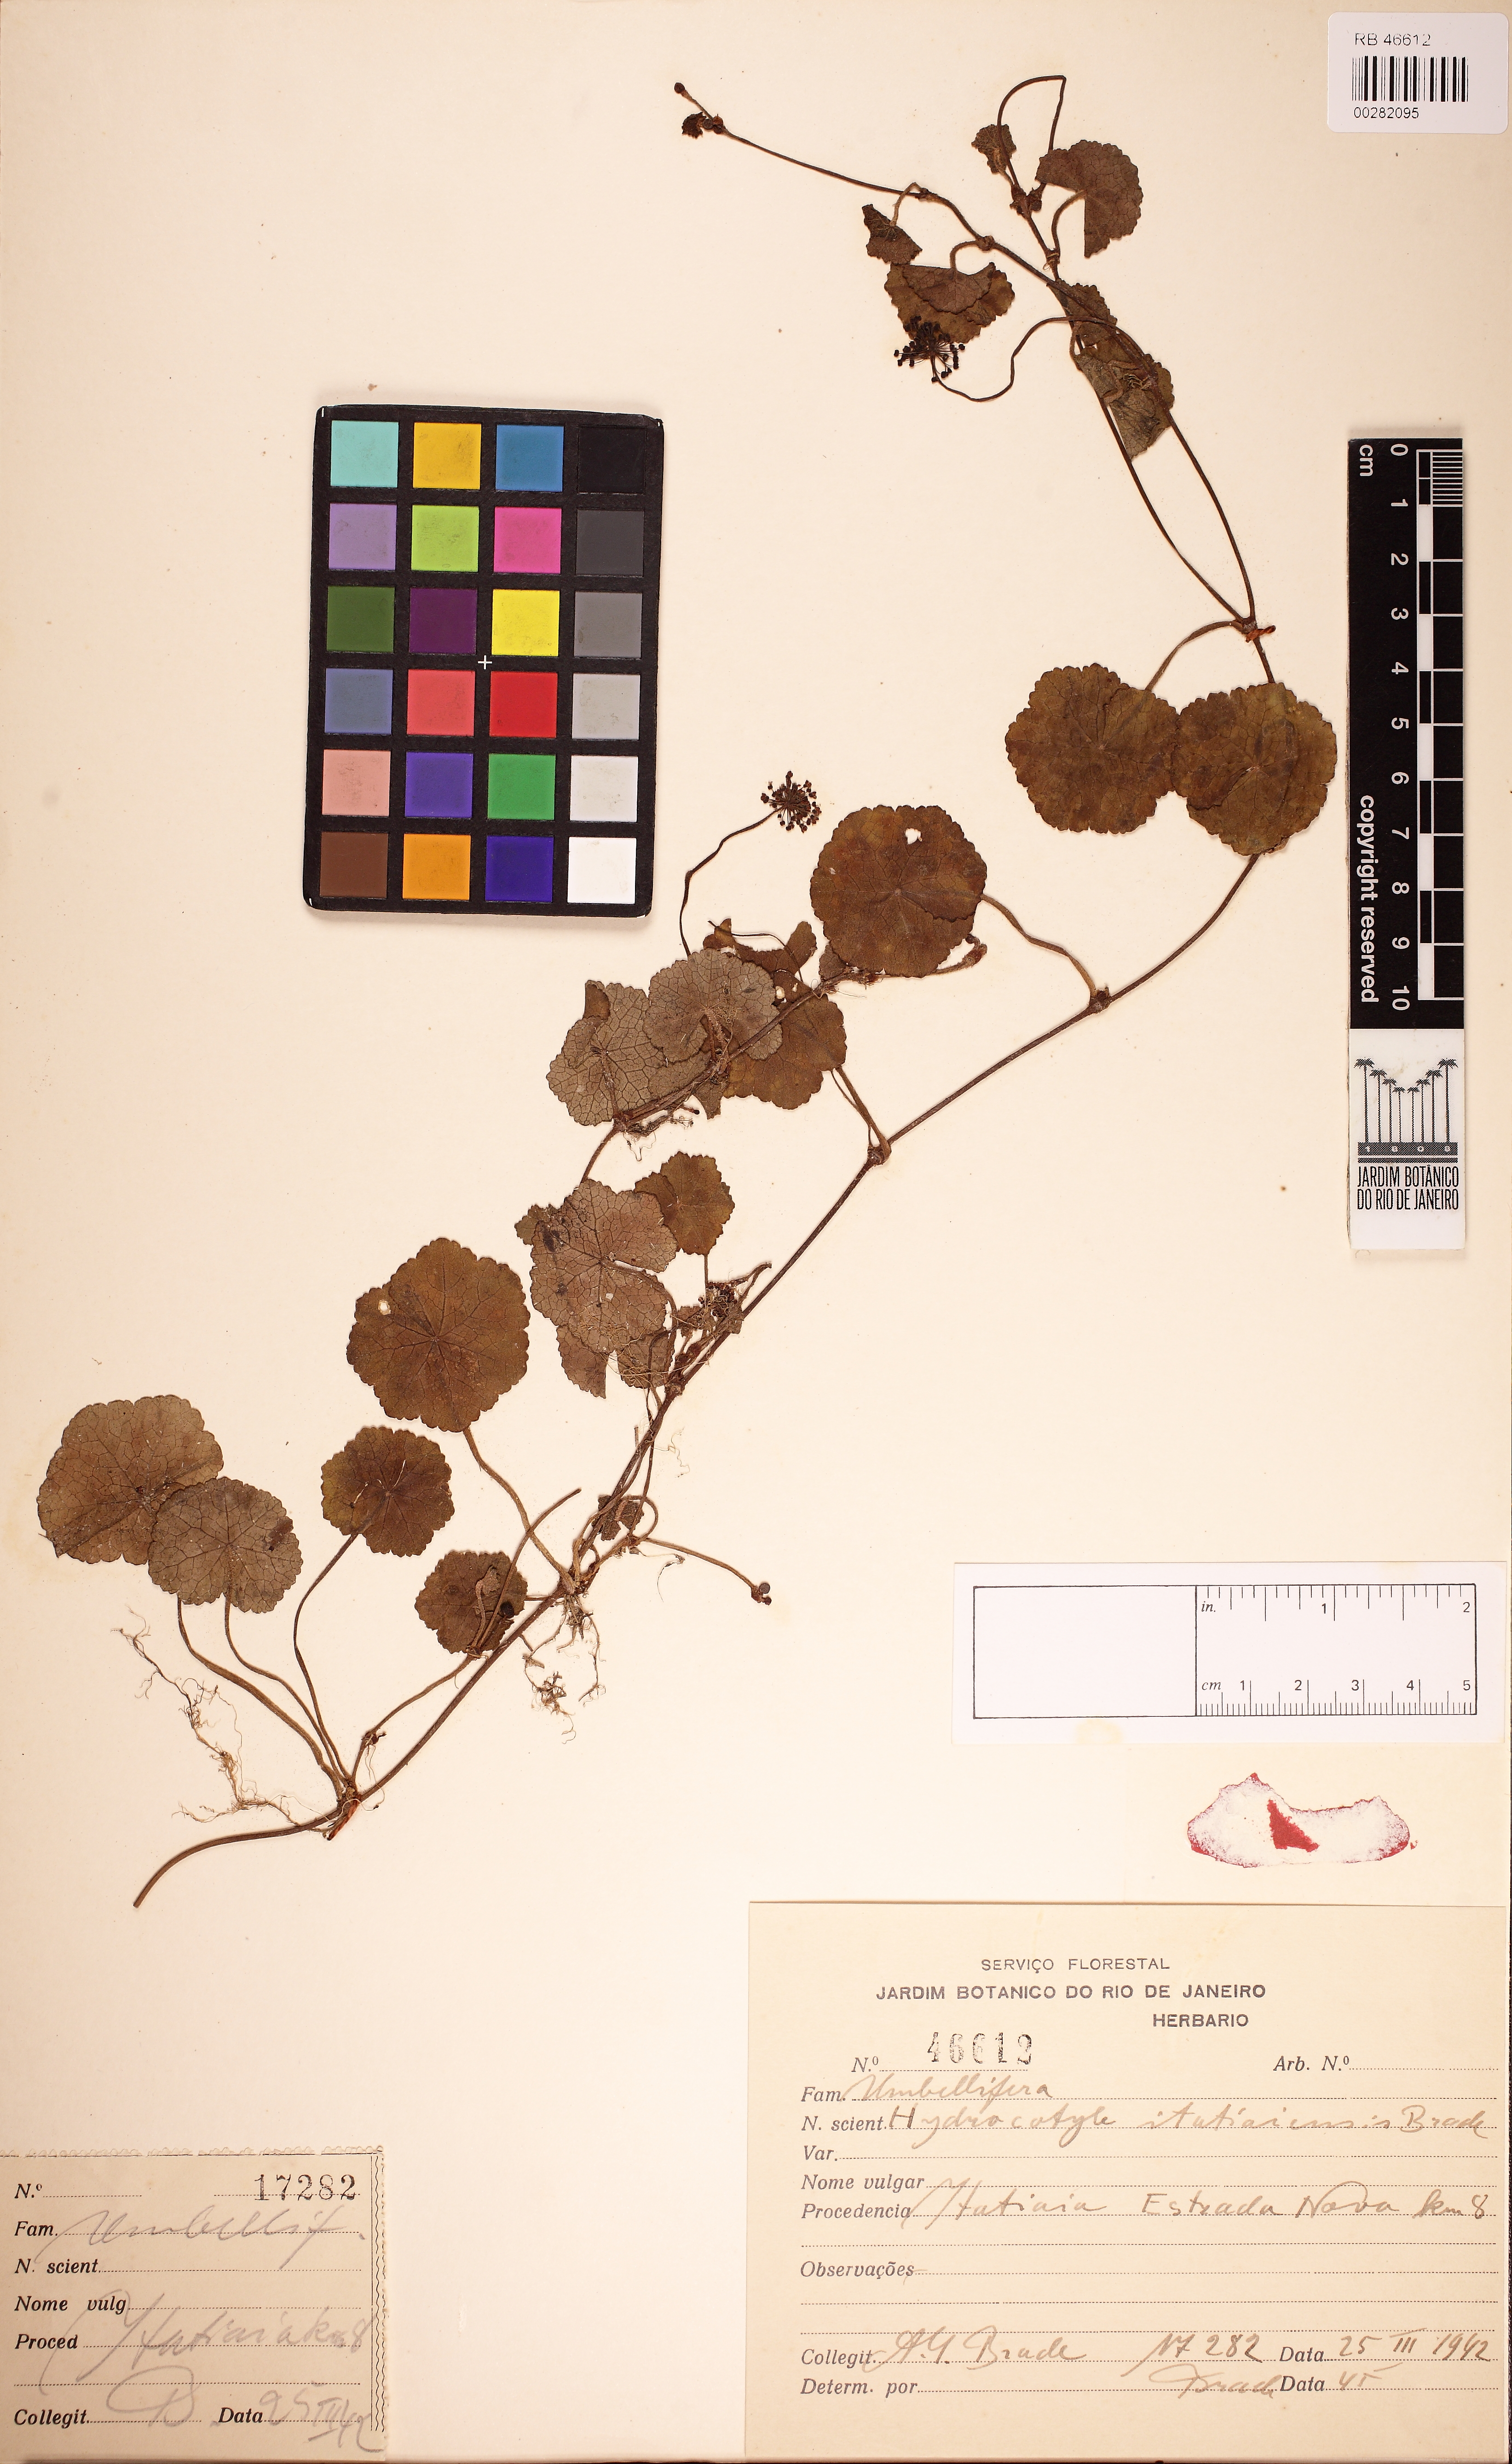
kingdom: Plantae
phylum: Tracheophyta
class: Magnoliopsida
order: Apiales
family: Araliaceae
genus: Hydrocotyle
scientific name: Hydrocotyle itatiaiensis
